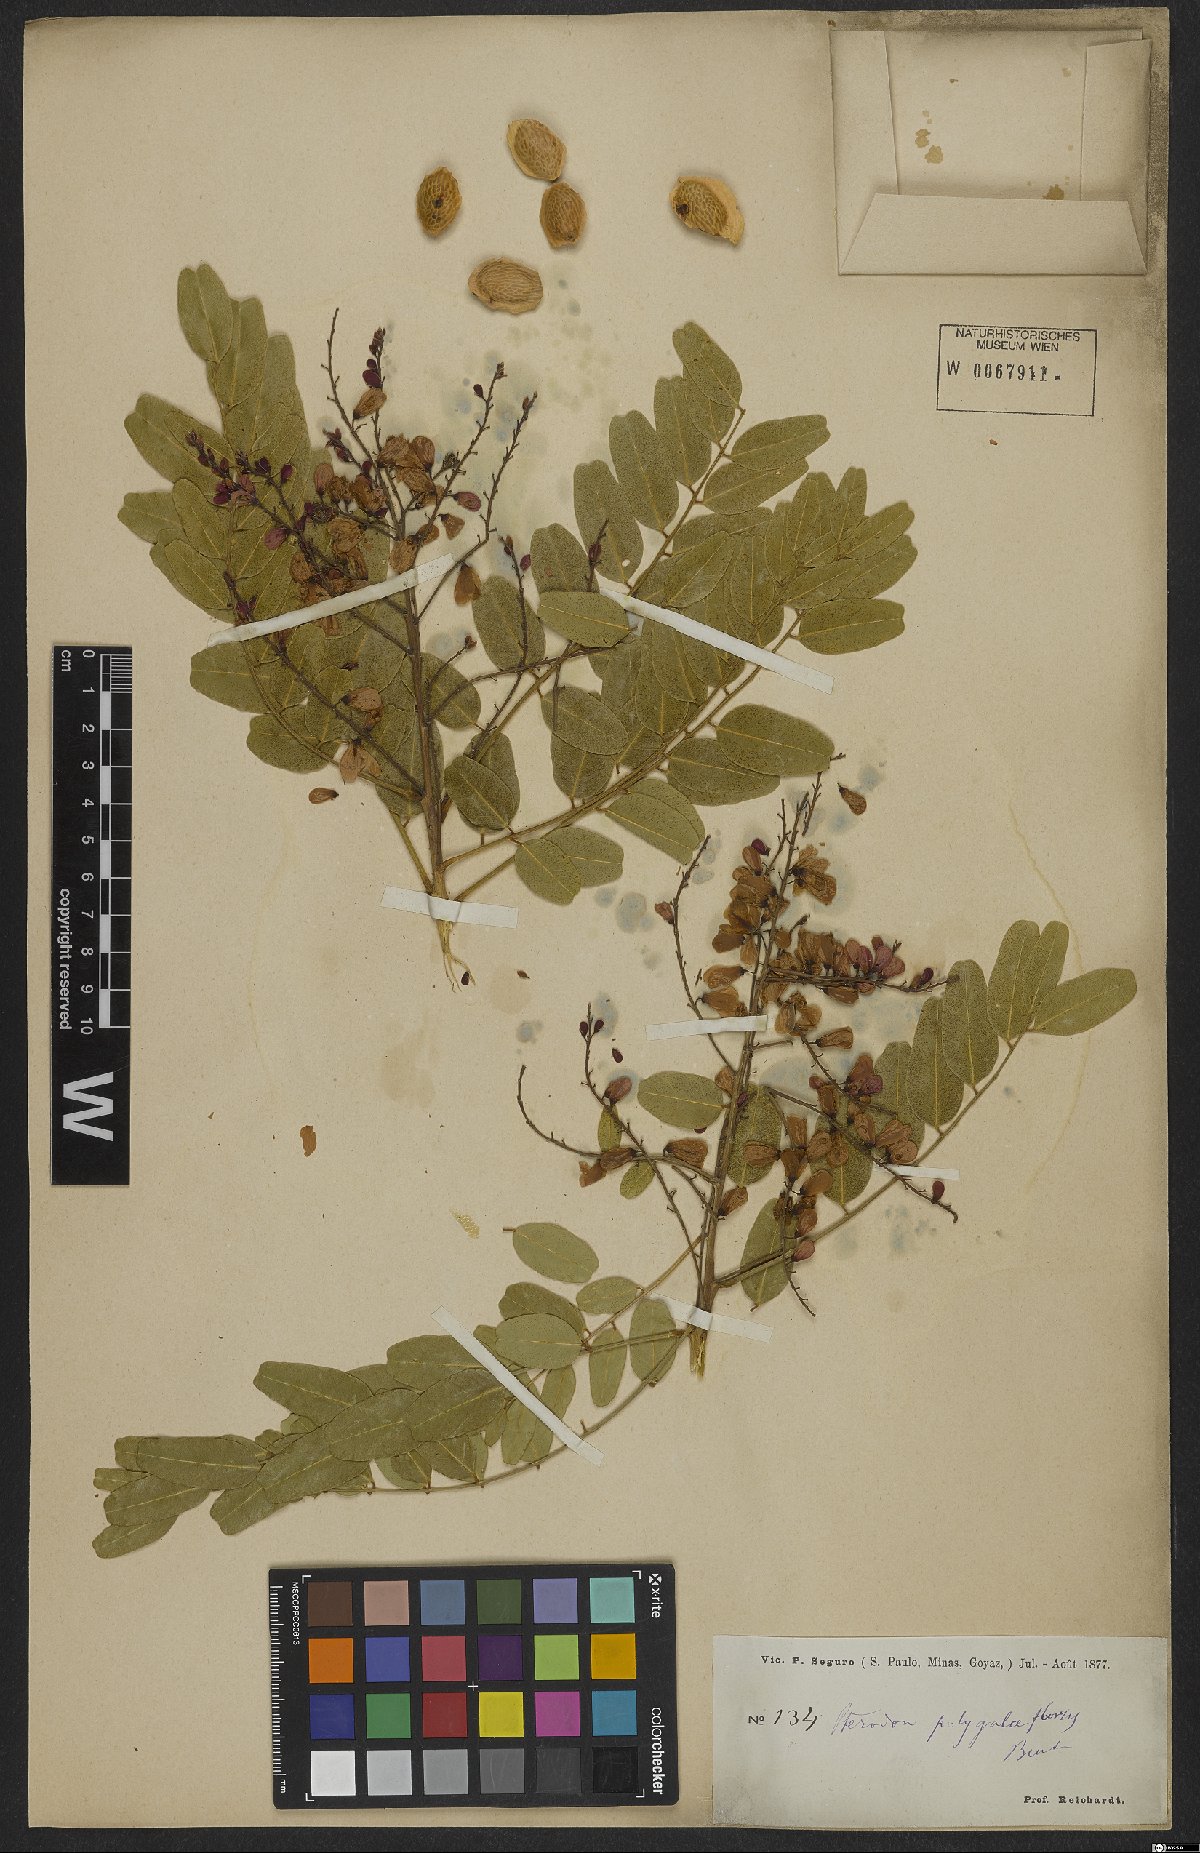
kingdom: Plantae
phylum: Tracheophyta
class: Magnoliopsida
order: Fabales
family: Fabaceae
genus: Pterodon
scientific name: Pterodon emarginatus
